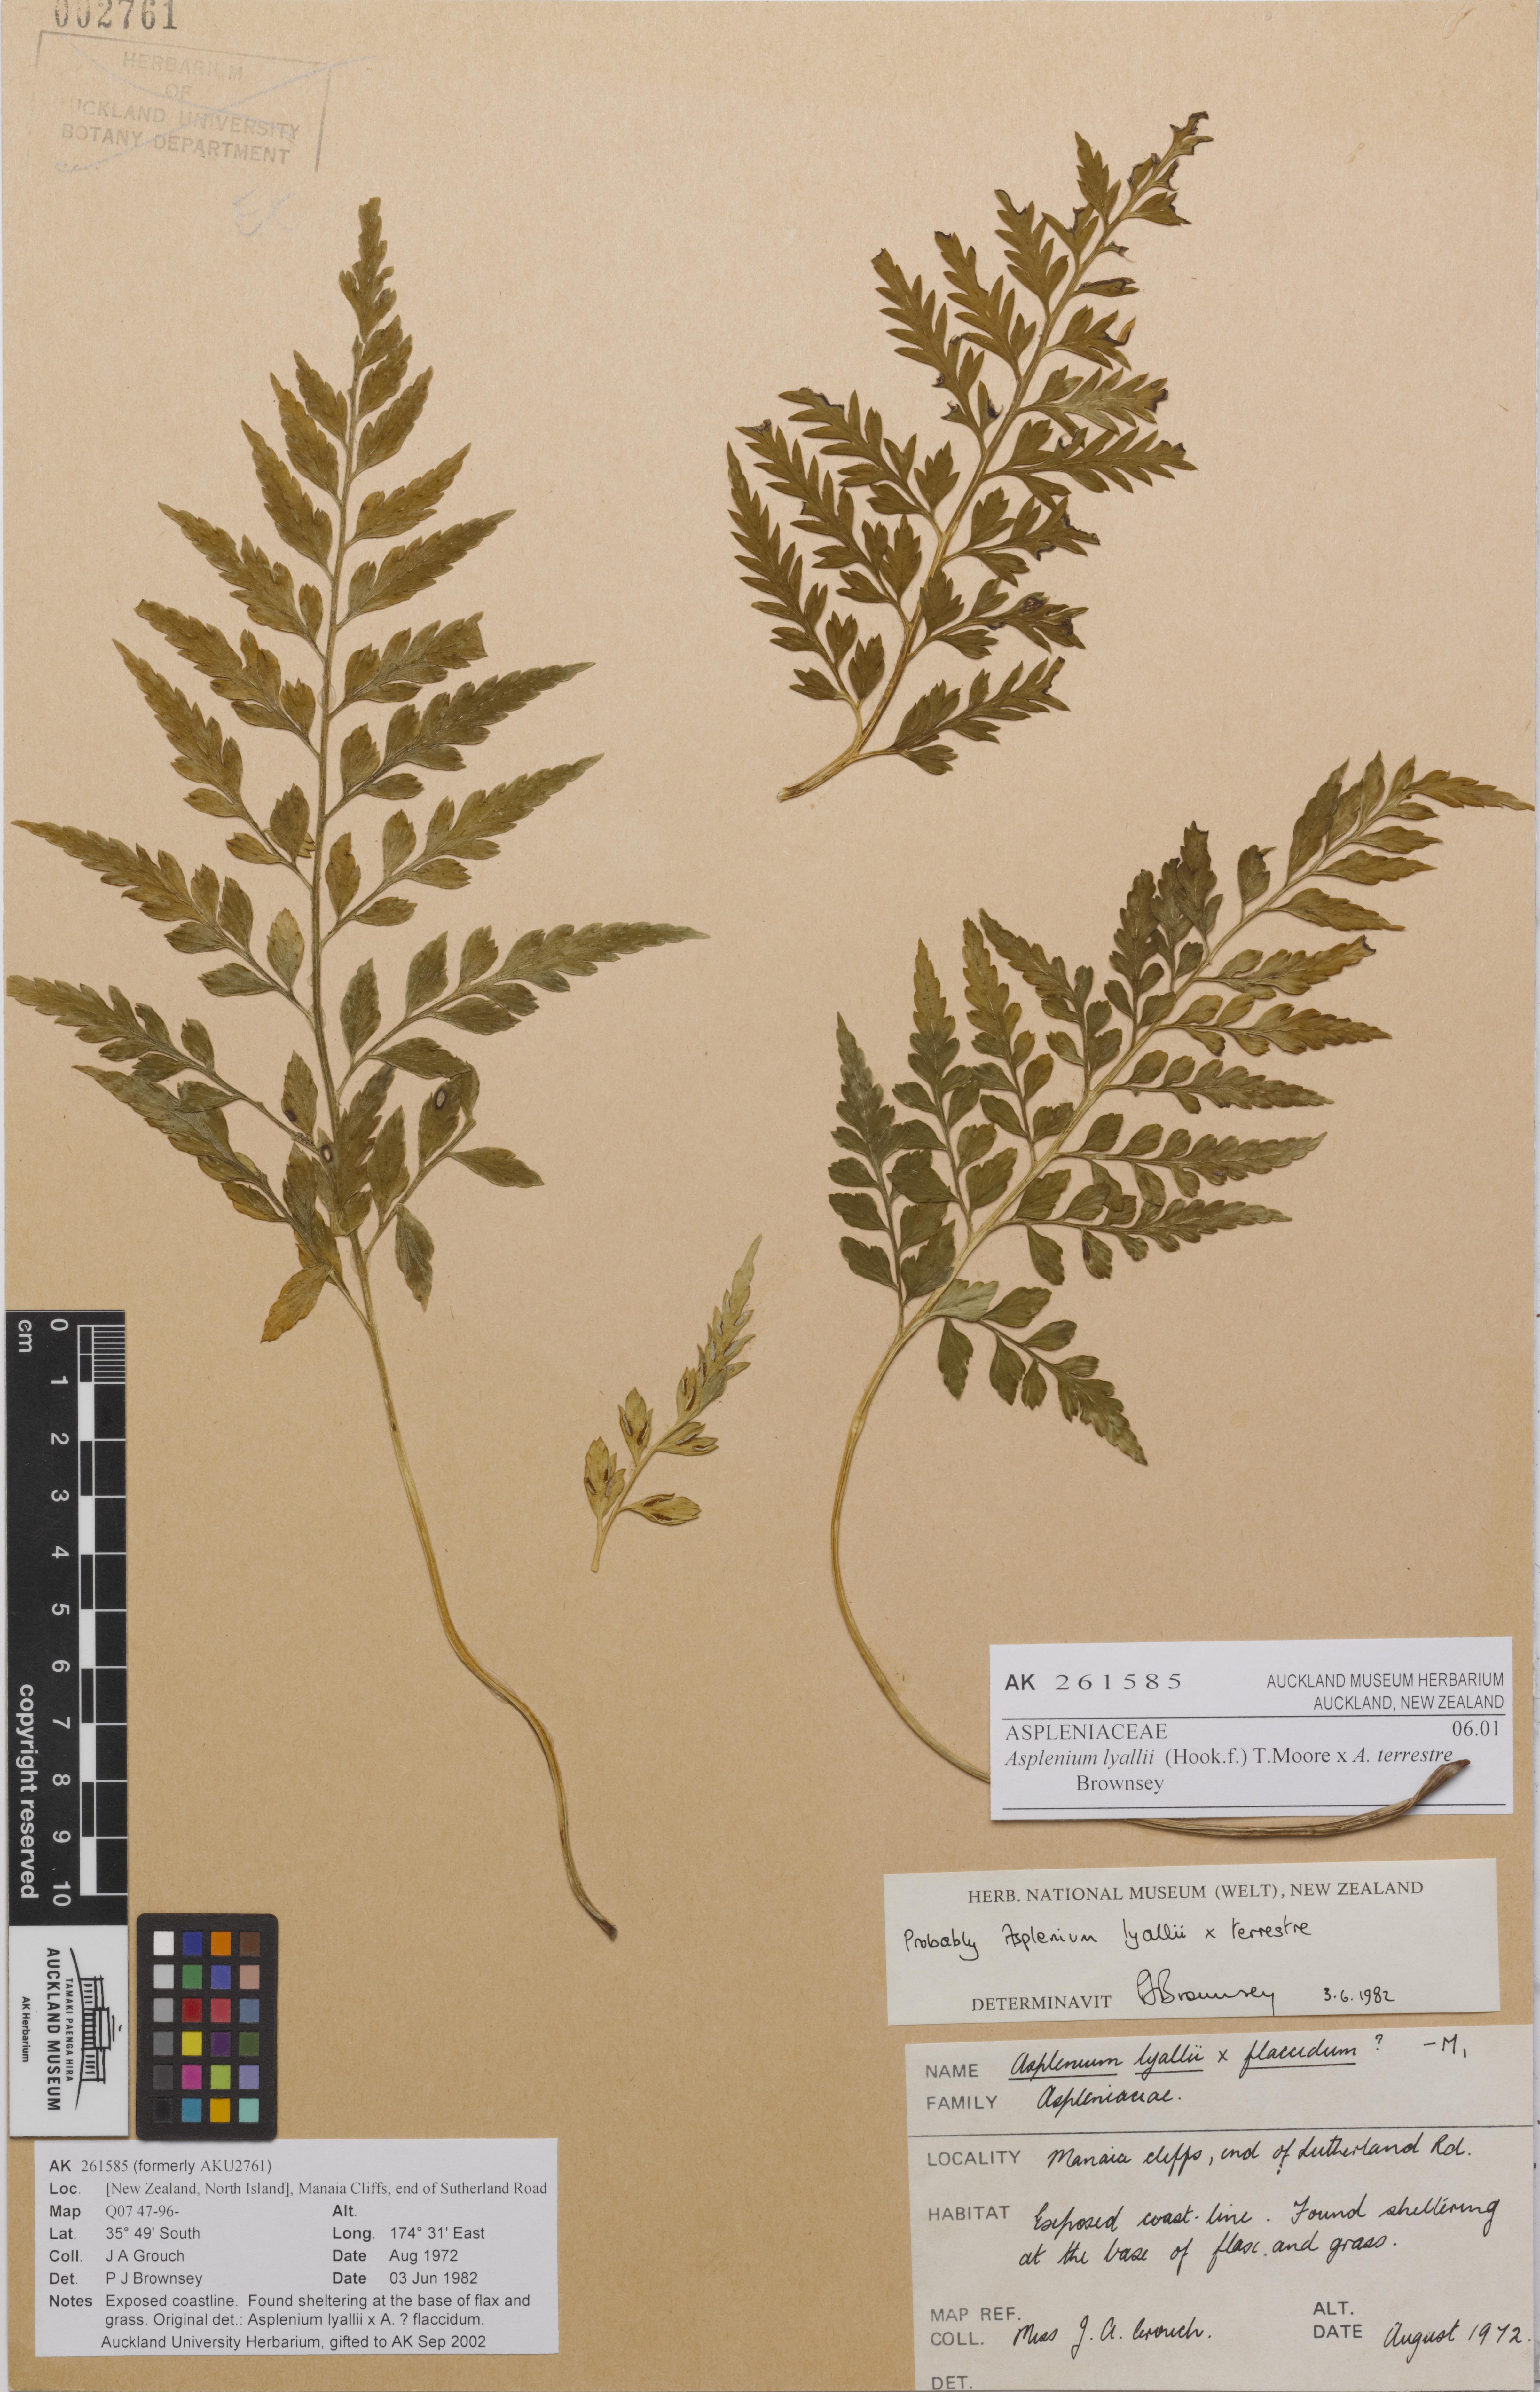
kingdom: Plantae
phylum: Tracheophyta
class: Polypodiopsida
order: Polypodiales
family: Aspleniaceae
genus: Asplenium
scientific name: Asplenium lyallii
